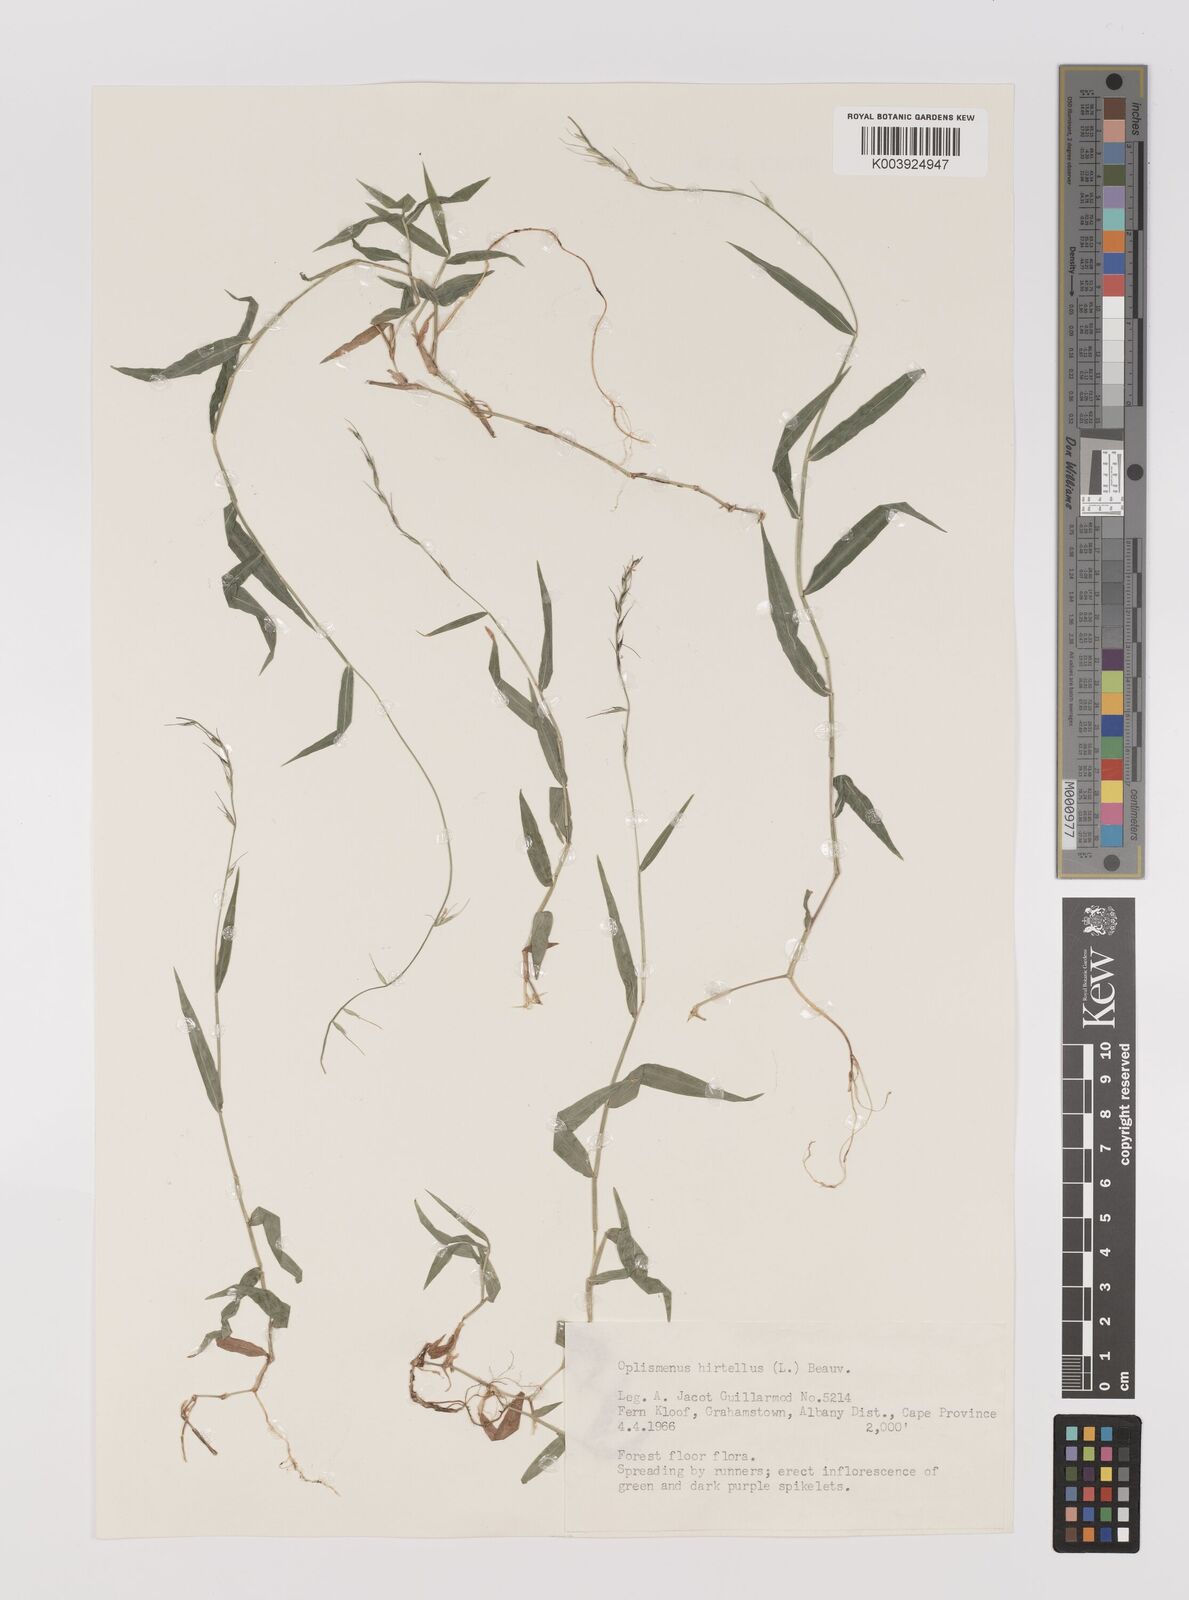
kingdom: Plantae
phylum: Tracheophyta
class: Liliopsida
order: Poales
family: Poaceae
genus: Oplismenus
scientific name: Oplismenus undulatifolius
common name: Wavyleaf basketgrass
